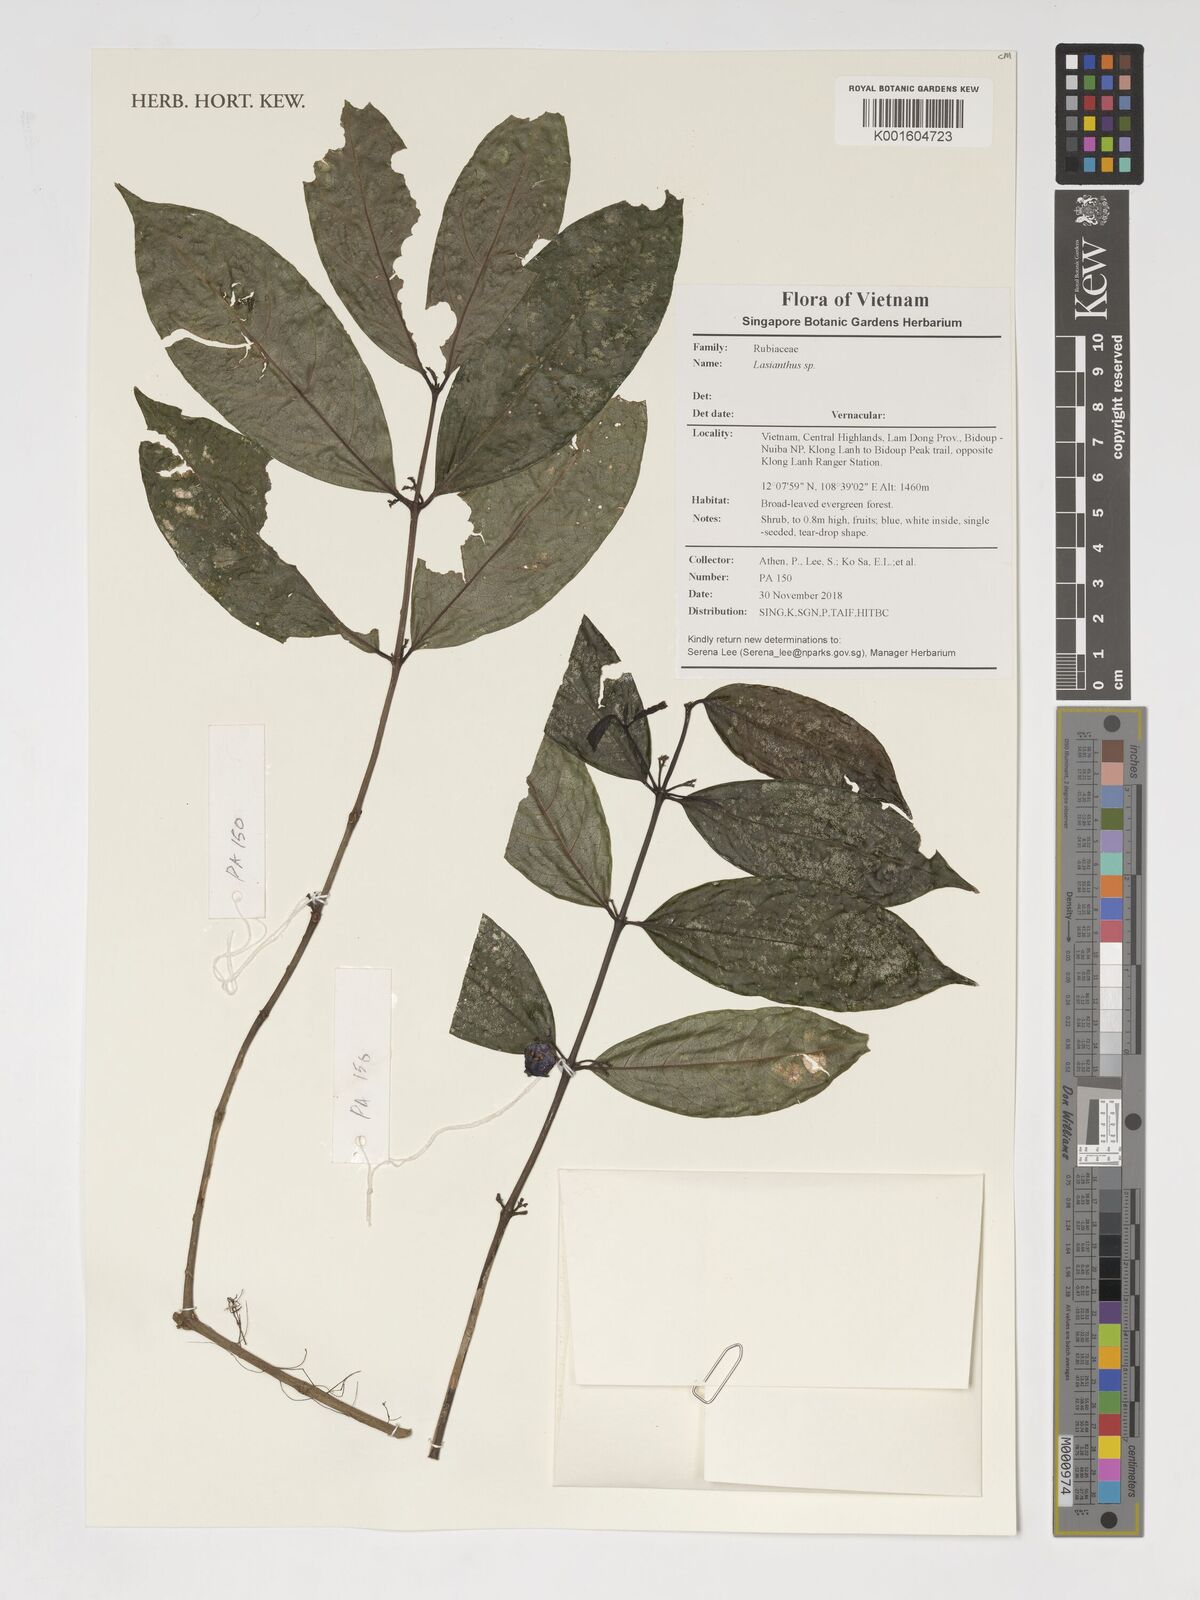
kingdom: Plantae
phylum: Tracheophyta
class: Magnoliopsida
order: Gentianales
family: Rubiaceae
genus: Lasianthus
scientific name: Lasianthus
